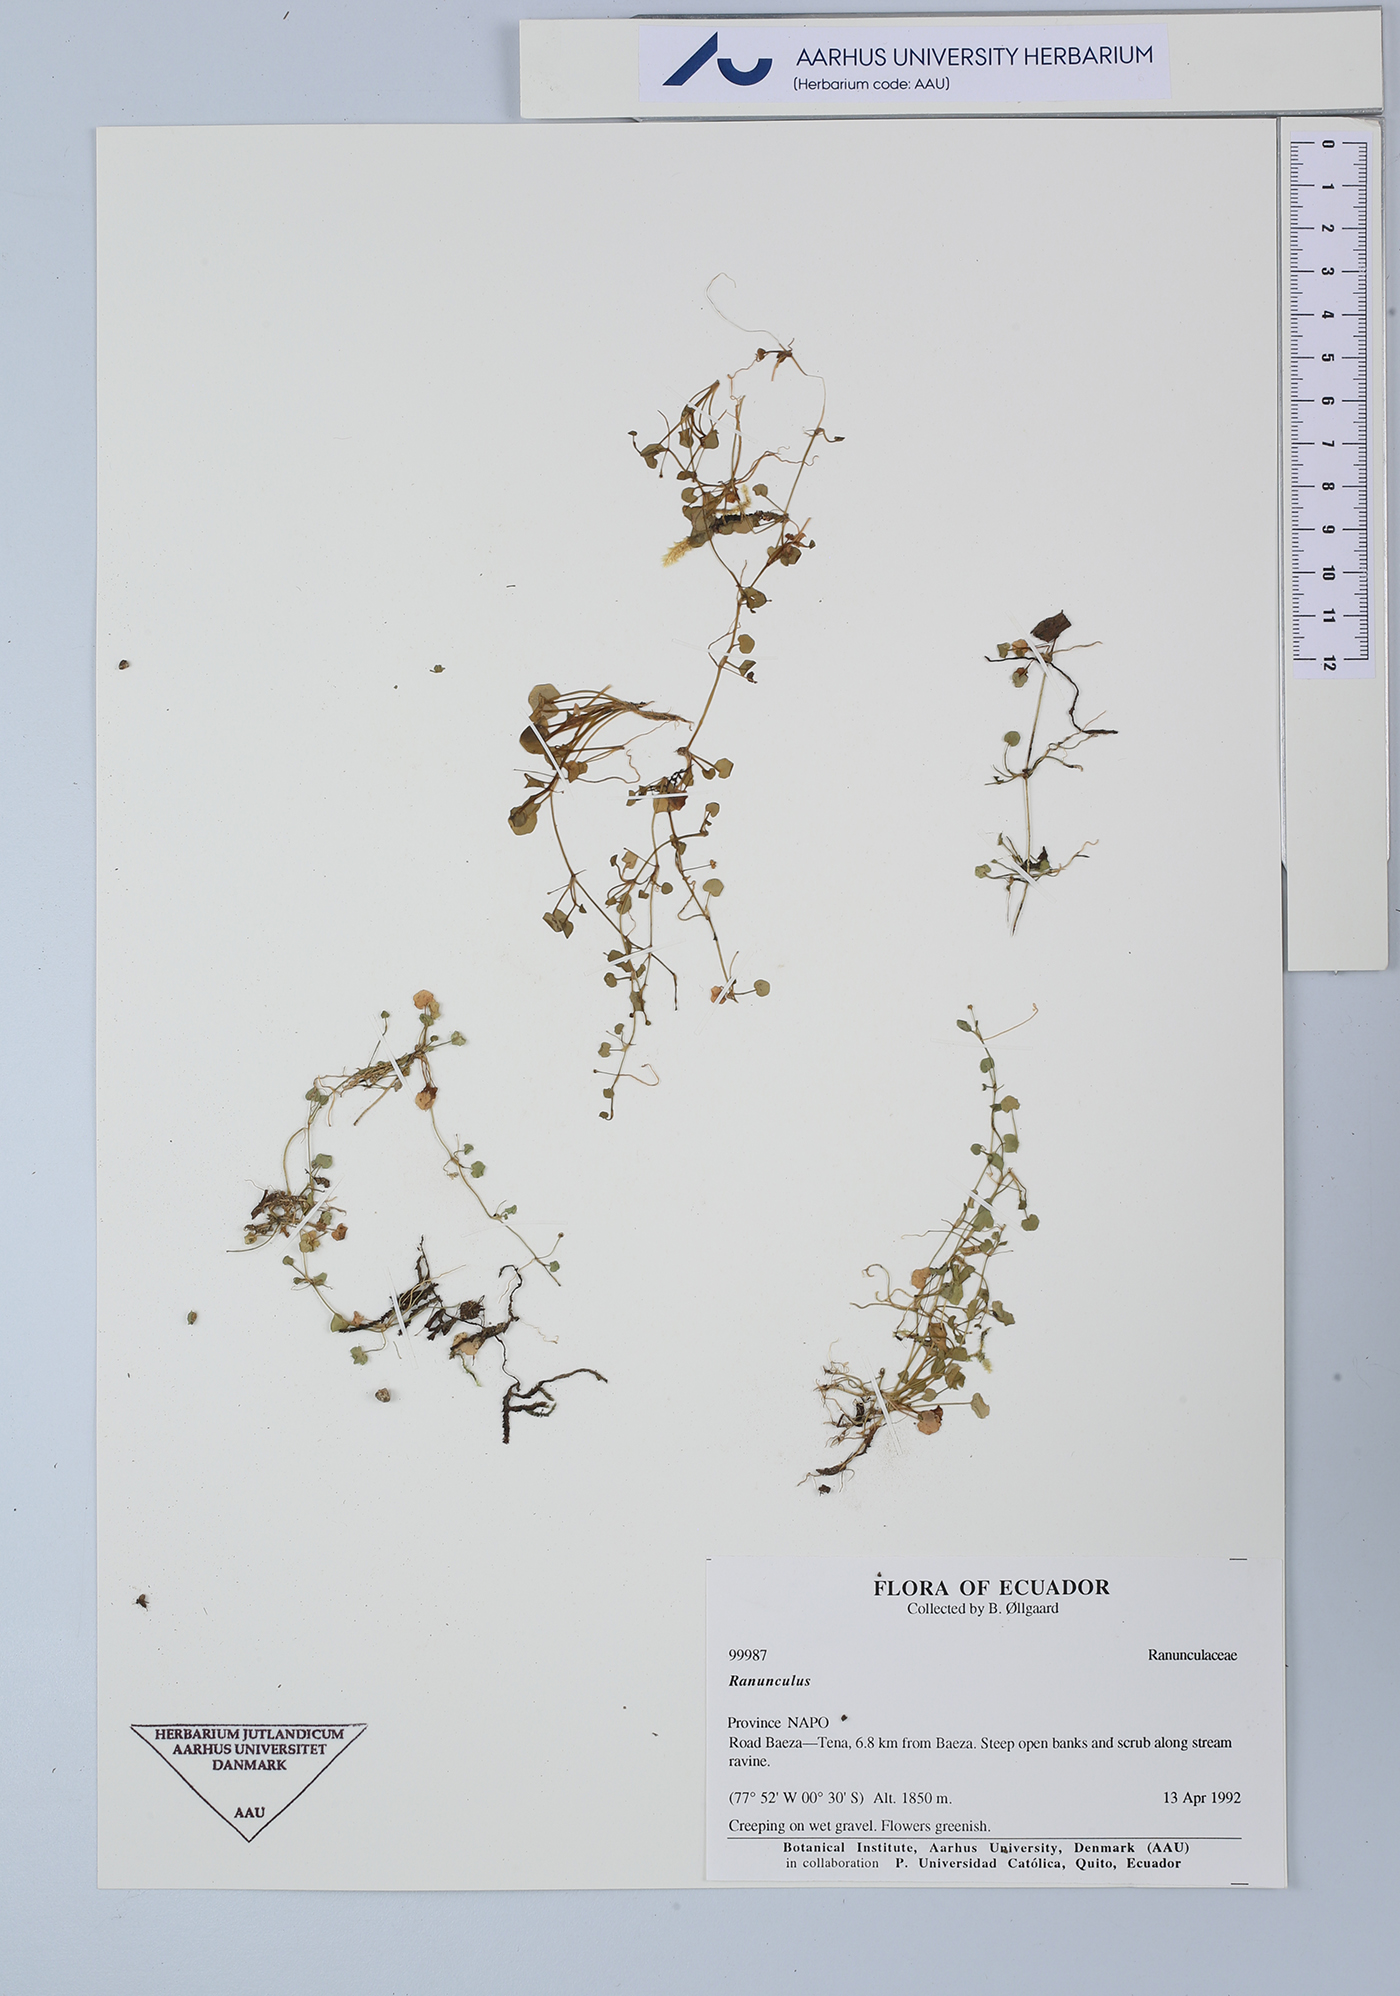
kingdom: Plantae
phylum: Tracheophyta
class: Magnoliopsida
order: Ranunculales
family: Ranunculaceae
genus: Ranunculus
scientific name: Ranunculus
